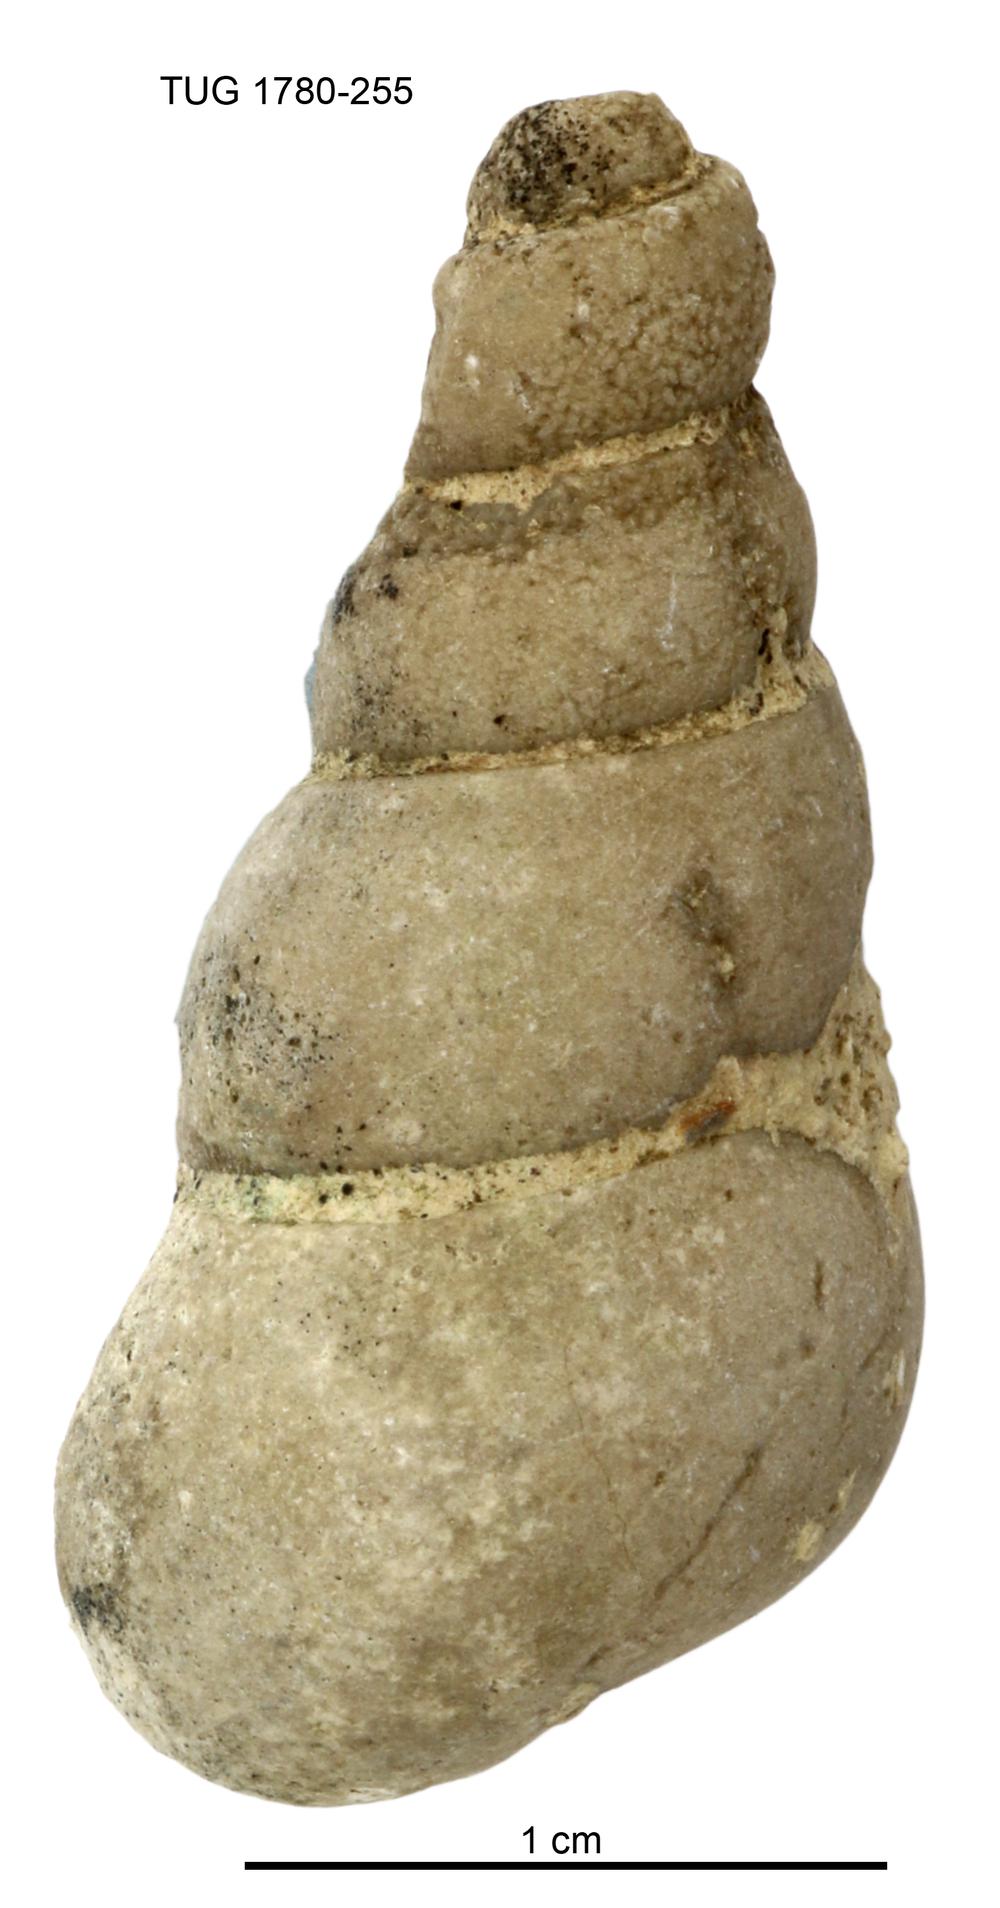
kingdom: Animalia
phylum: Mollusca
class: Gastropoda
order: Pleurotomariida
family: Murchisoniidae
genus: Hormotoma
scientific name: Hormotoma
